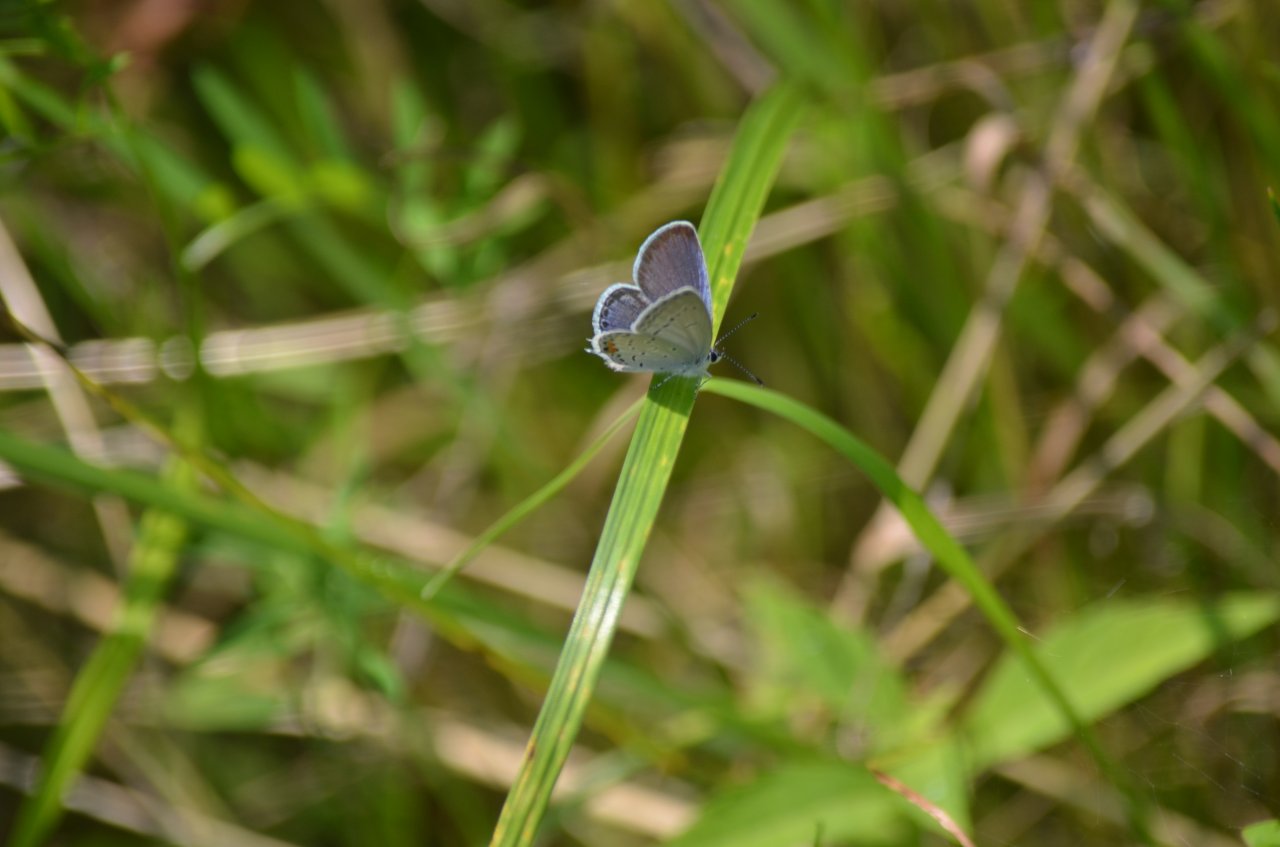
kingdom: Animalia
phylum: Arthropoda
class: Insecta
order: Lepidoptera
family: Lycaenidae
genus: Elkalyce
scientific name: Elkalyce comyntas
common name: Eastern Tailed-Blue
